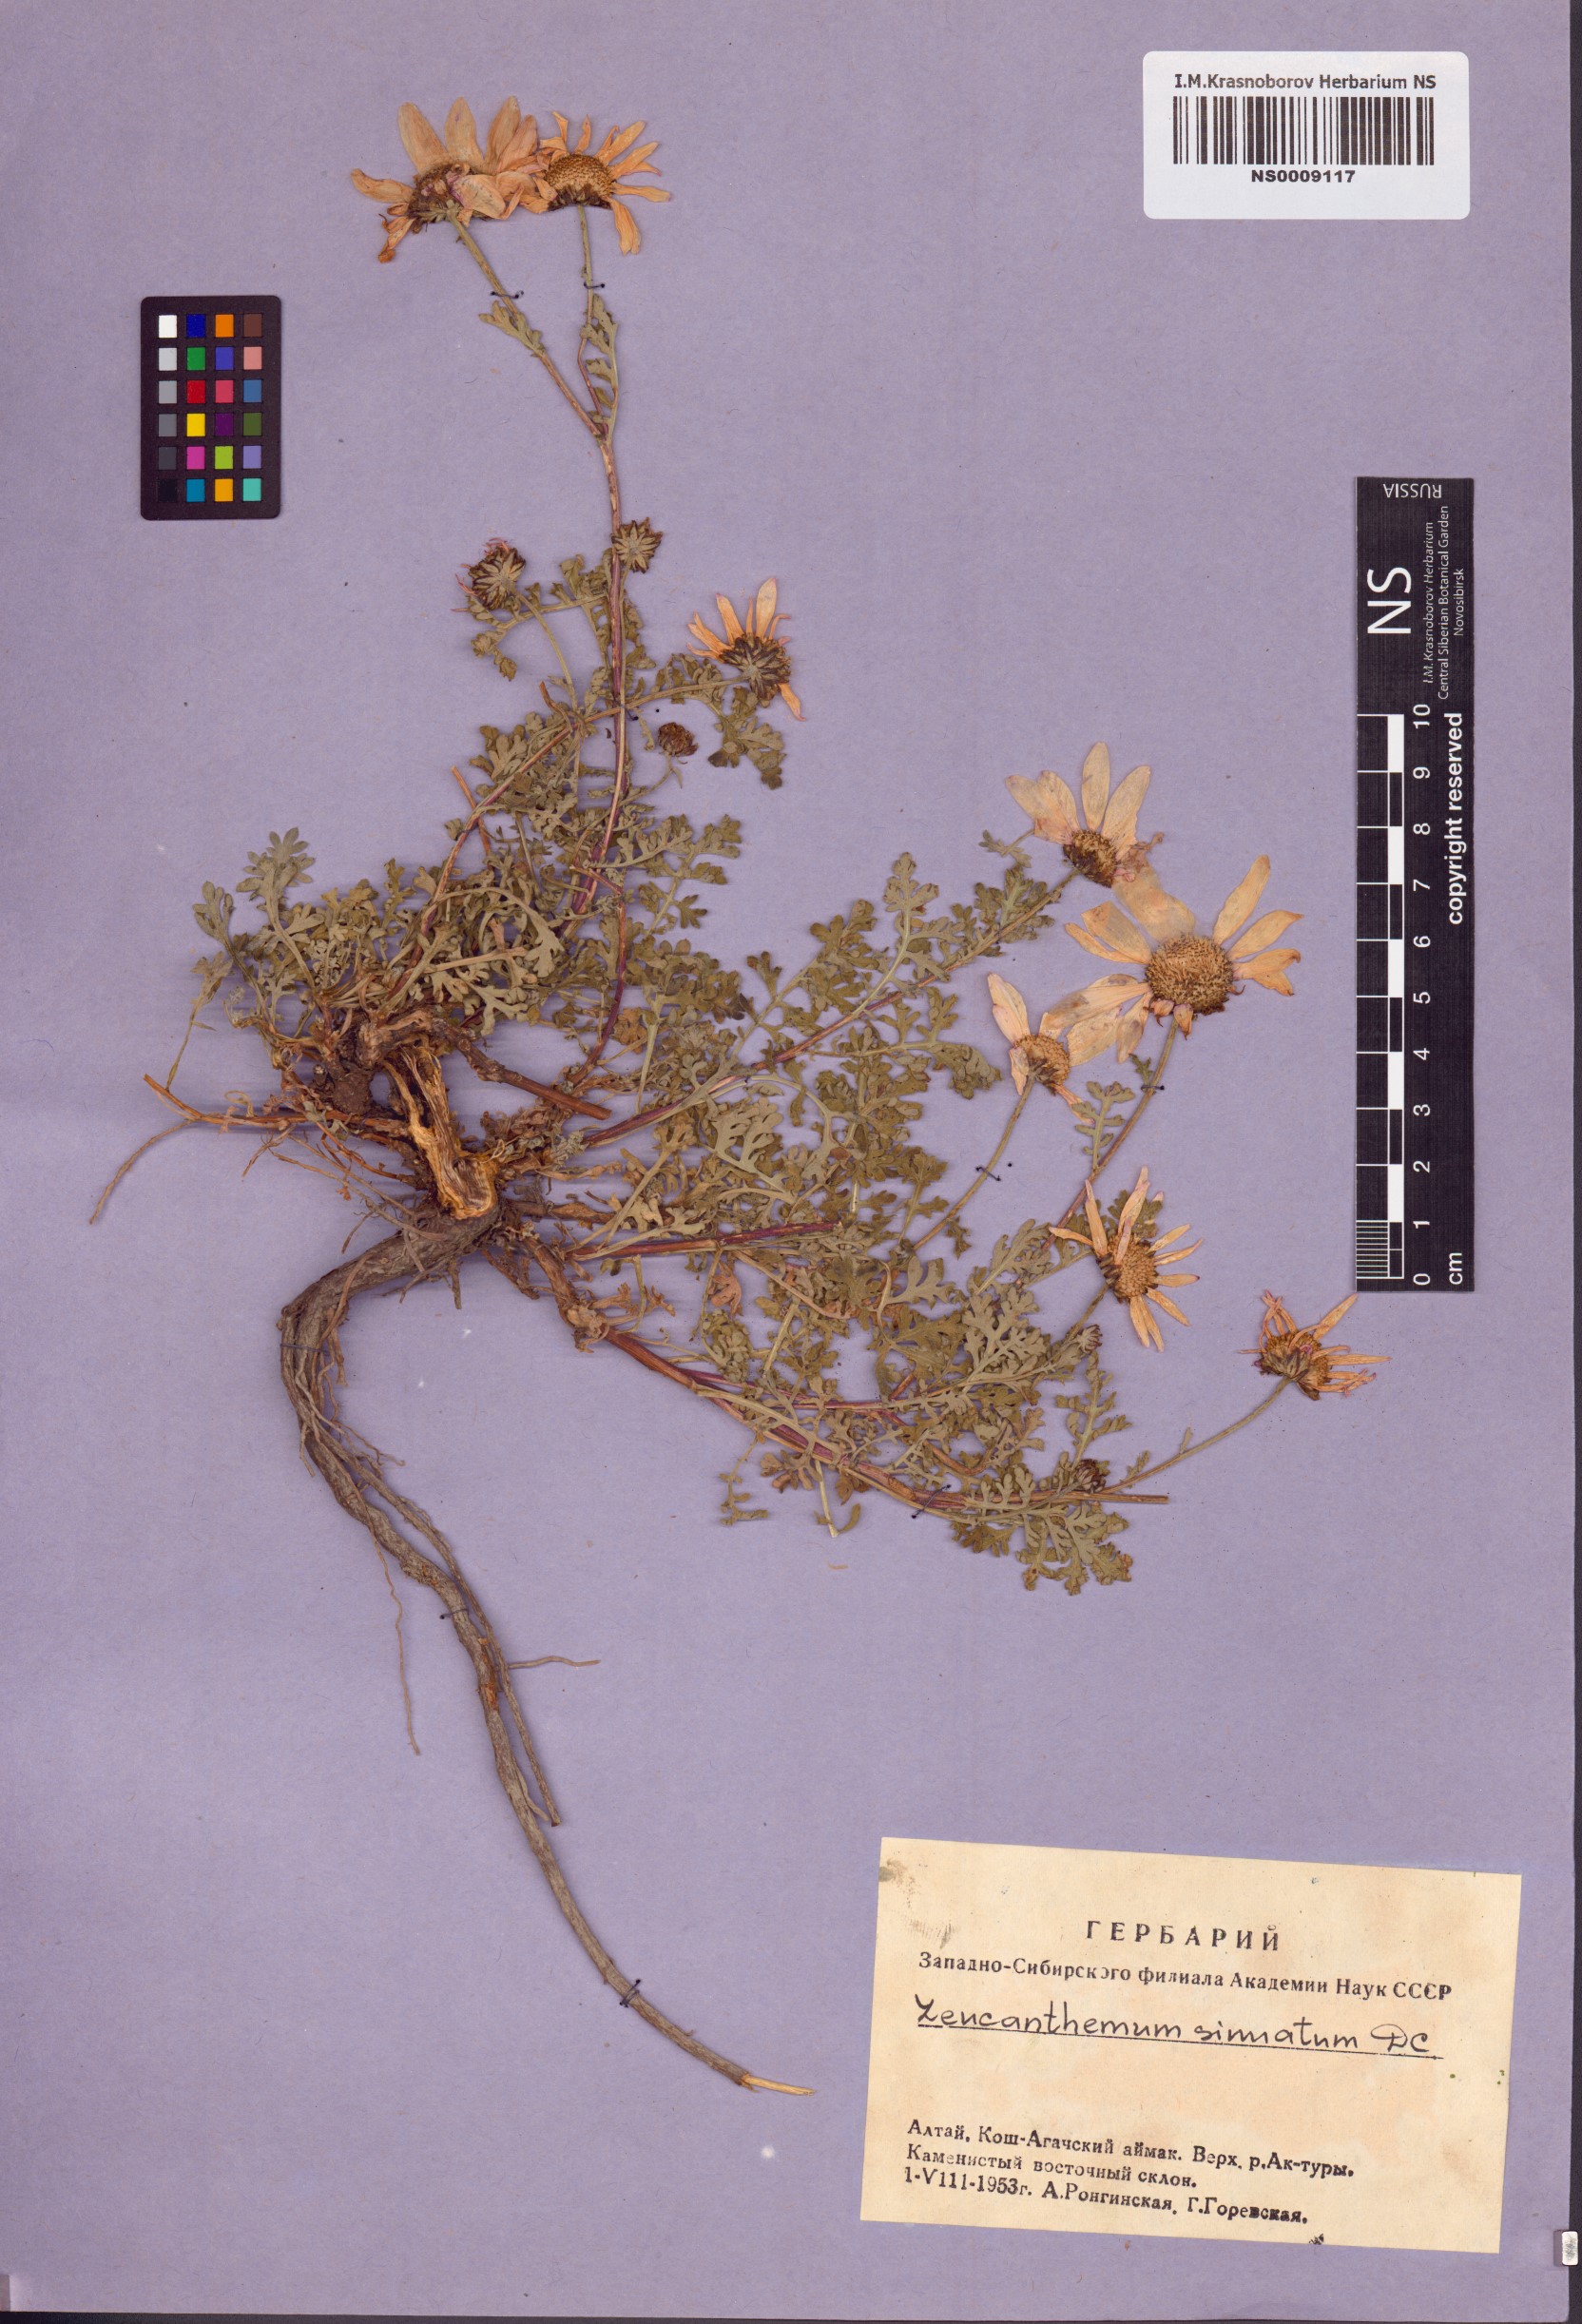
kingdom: Plantae
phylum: Tracheophyta
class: Magnoliopsida
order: Asterales
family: Asteraceae
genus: Chrysanthemum
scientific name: Chrysanthemum sinuatum
